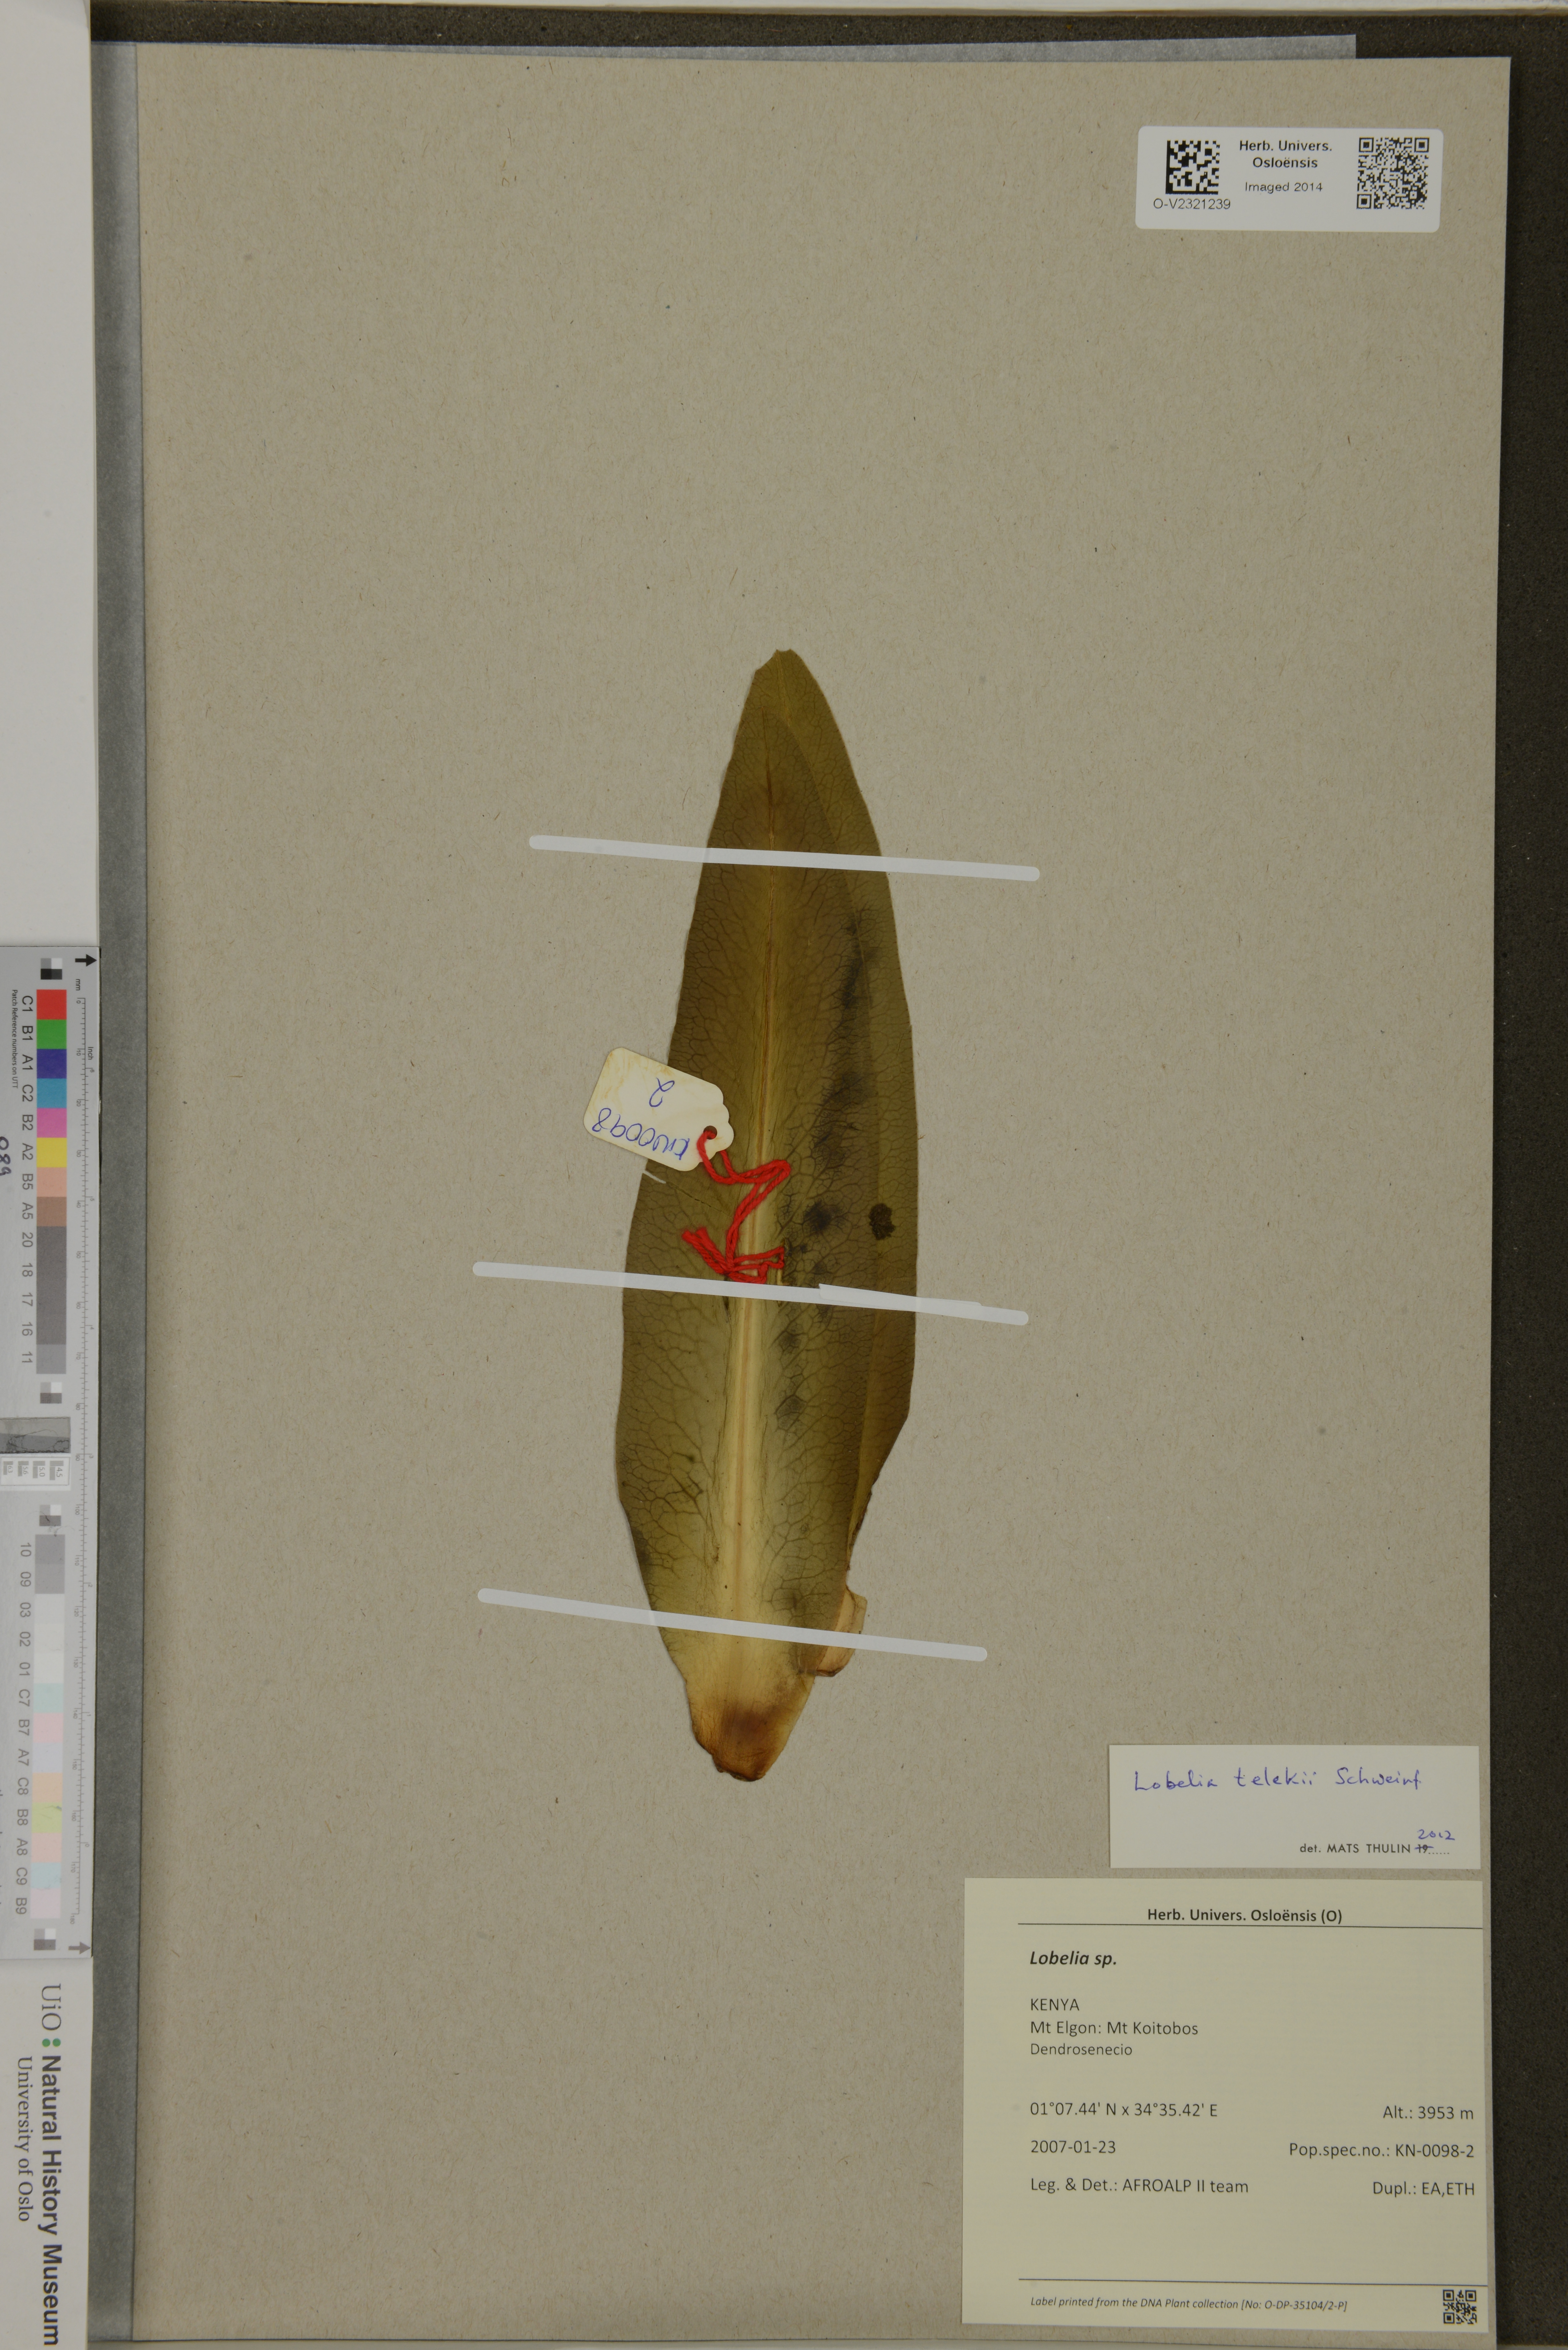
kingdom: Plantae
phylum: Tracheophyta
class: Magnoliopsida
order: Asterales
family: Campanulaceae
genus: Lobelia
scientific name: Lobelia telekii
